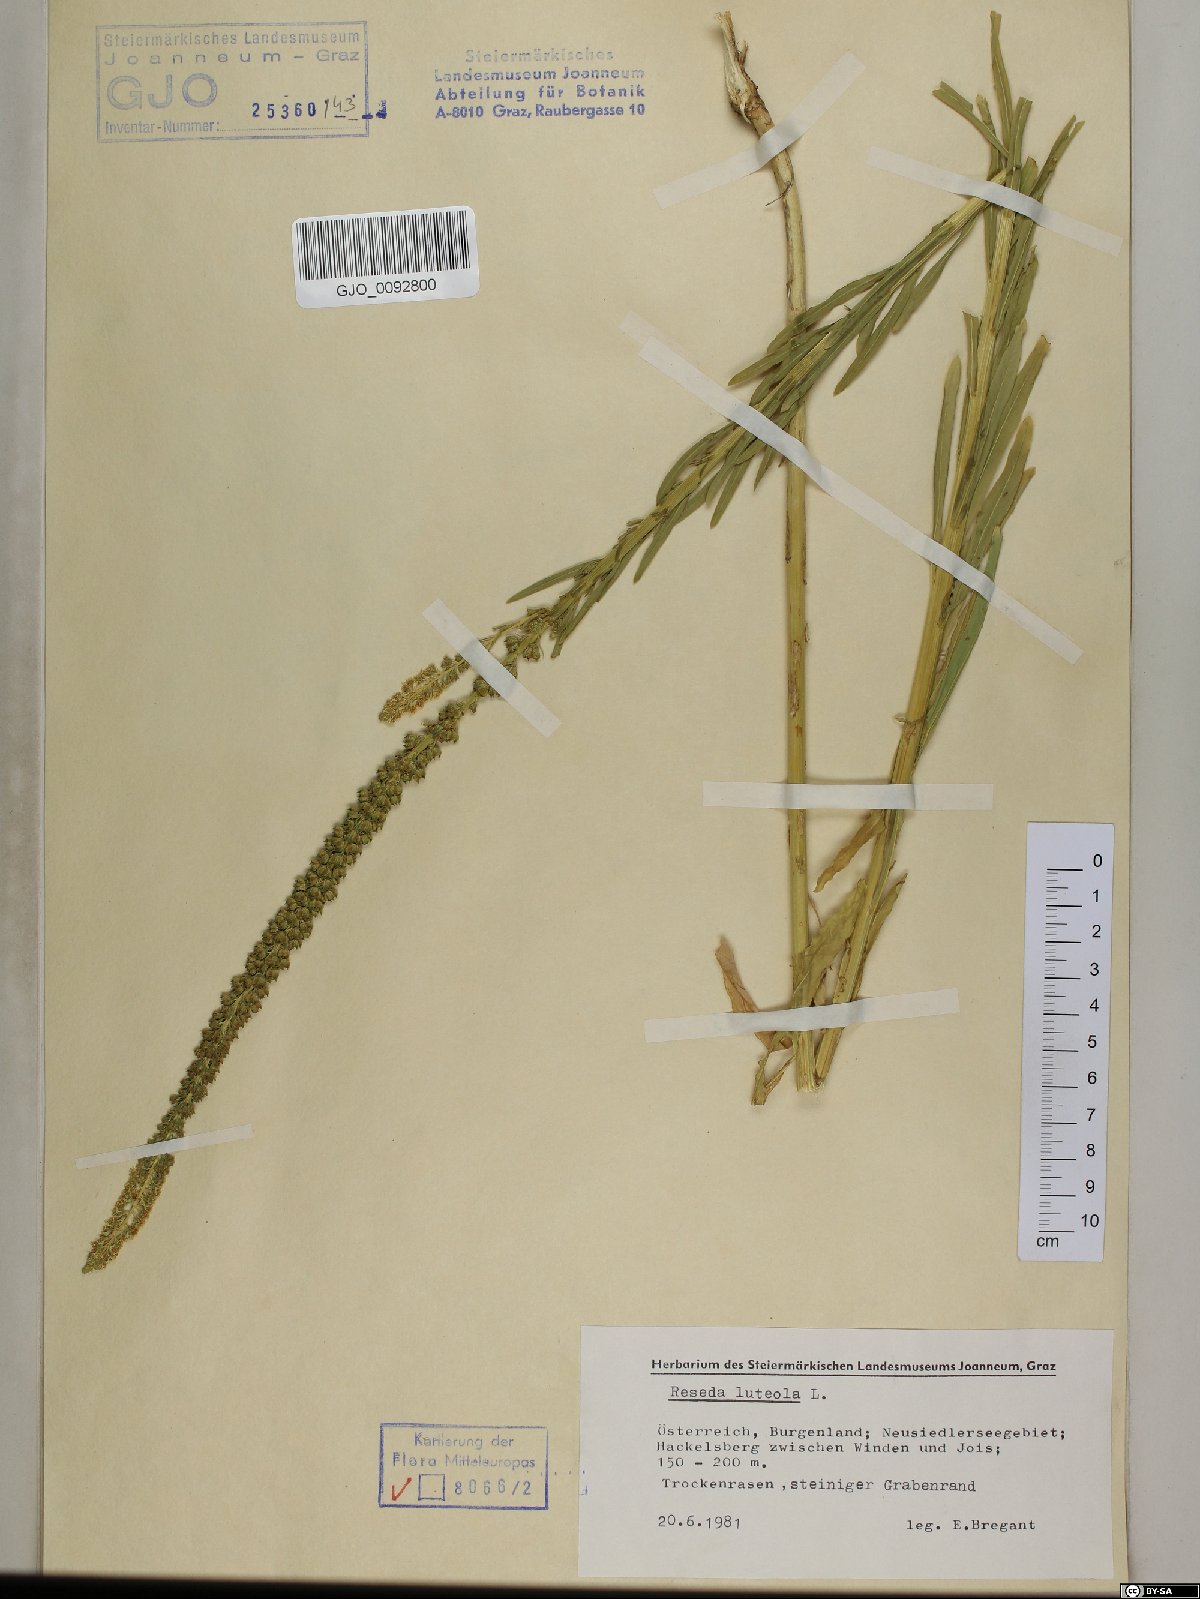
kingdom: Plantae
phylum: Tracheophyta
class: Magnoliopsida
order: Brassicales
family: Resedaceae
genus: Reseda
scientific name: Reseda luteola
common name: Weld
